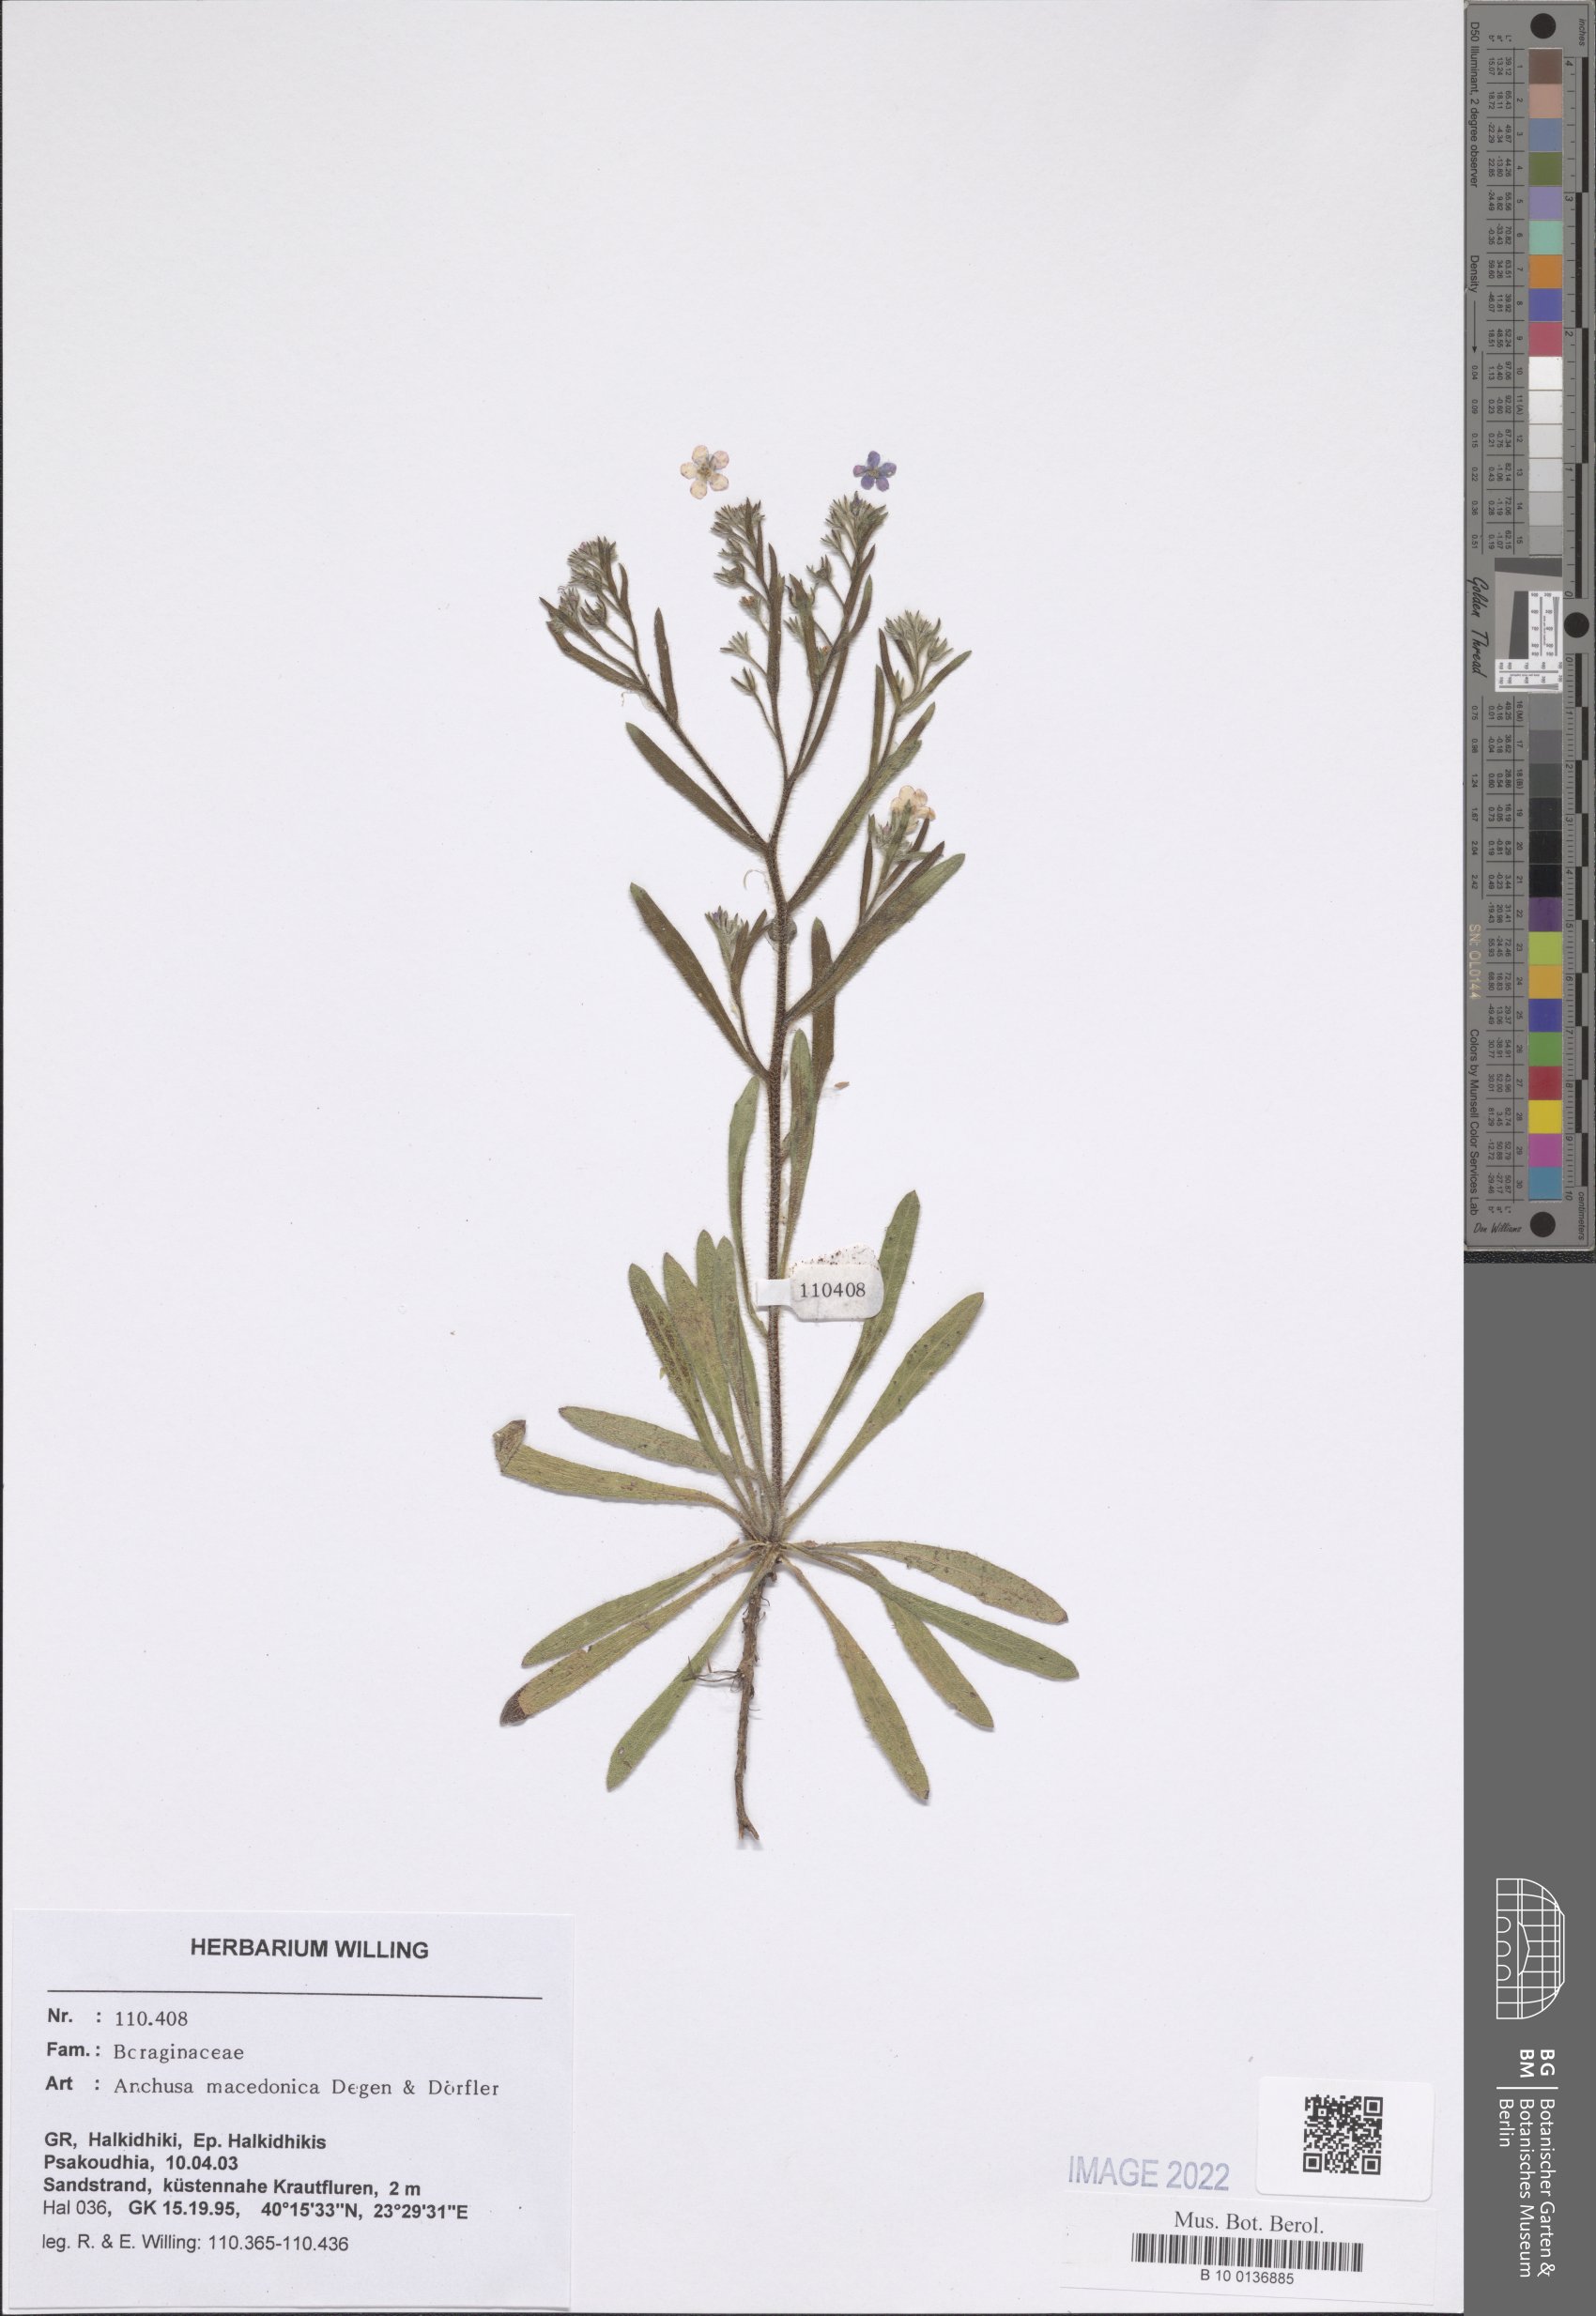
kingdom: Plantae
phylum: Tracheophyta
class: Magnoliopsida
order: Boraginales
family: Boraginaceae
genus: Anchusa
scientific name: Anchusa officinalis
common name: Alkanet
